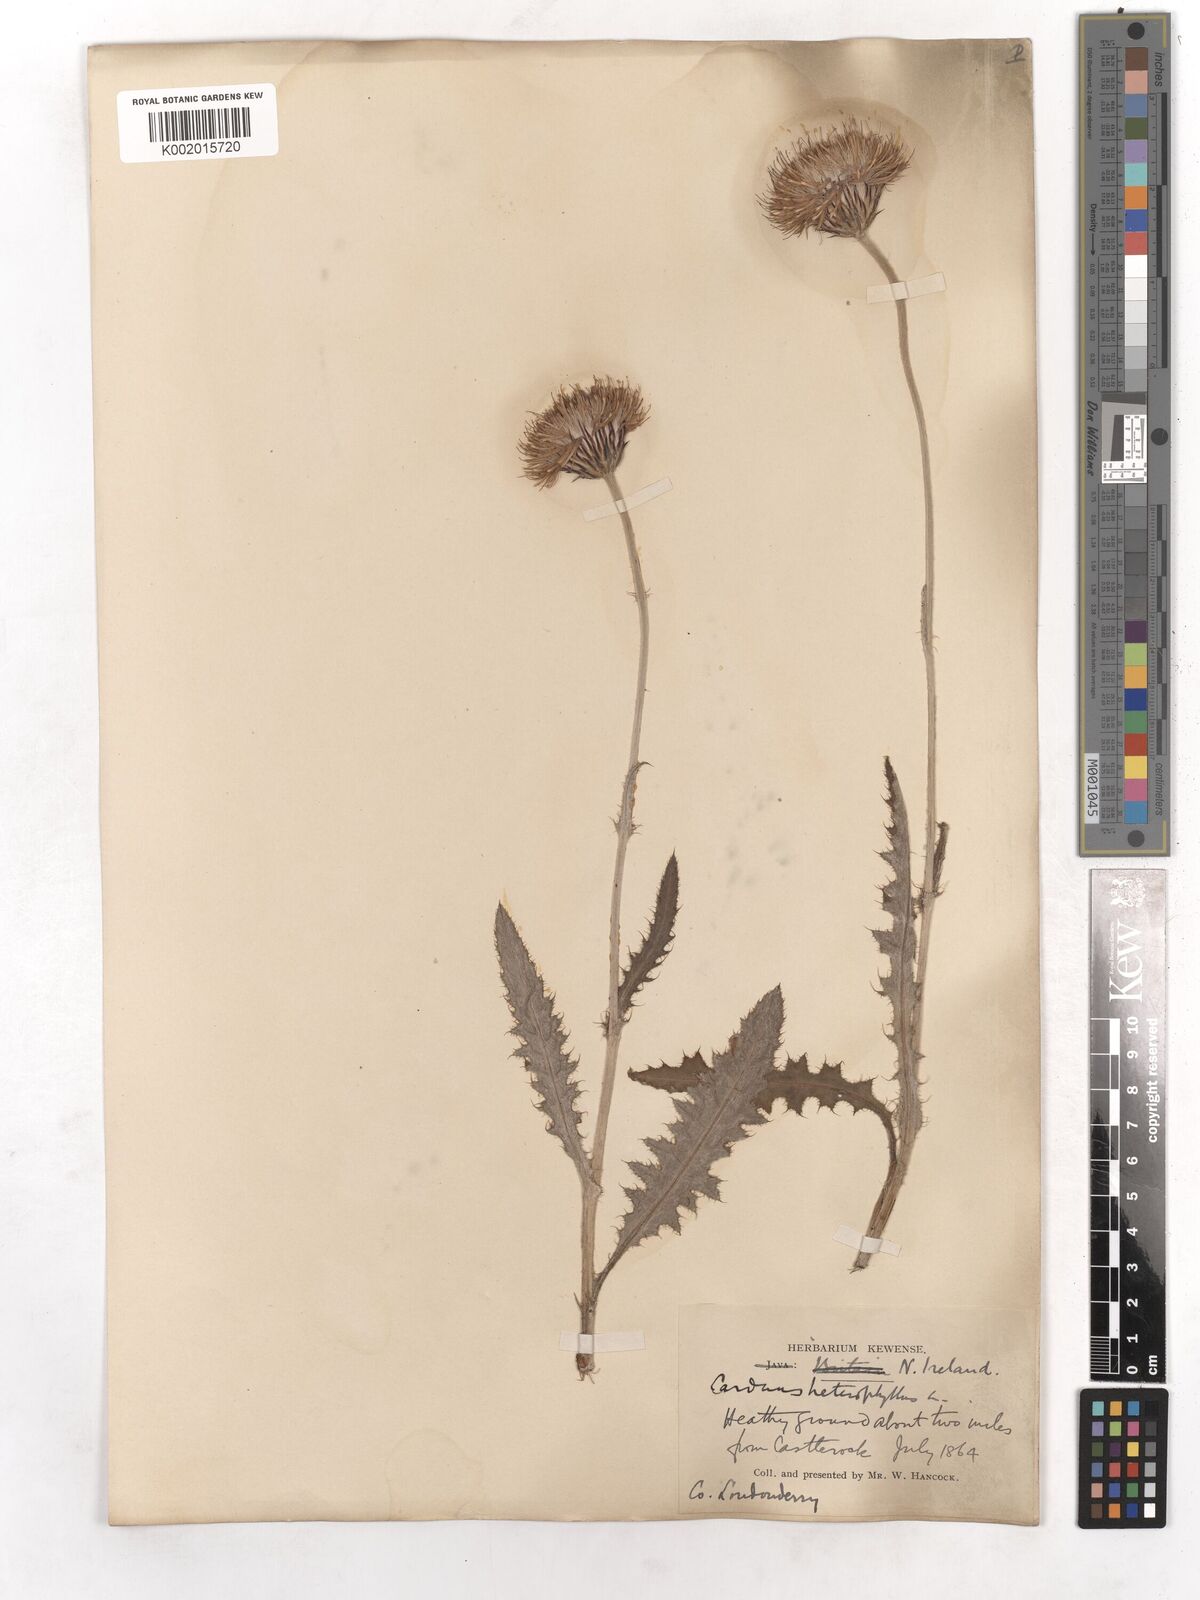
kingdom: Plantae
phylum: Tracheophyta
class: Magnoliopsida
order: Asterales
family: Asteraceae
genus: Cirsium
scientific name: Cirsium dissectum
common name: Meadow thistle
